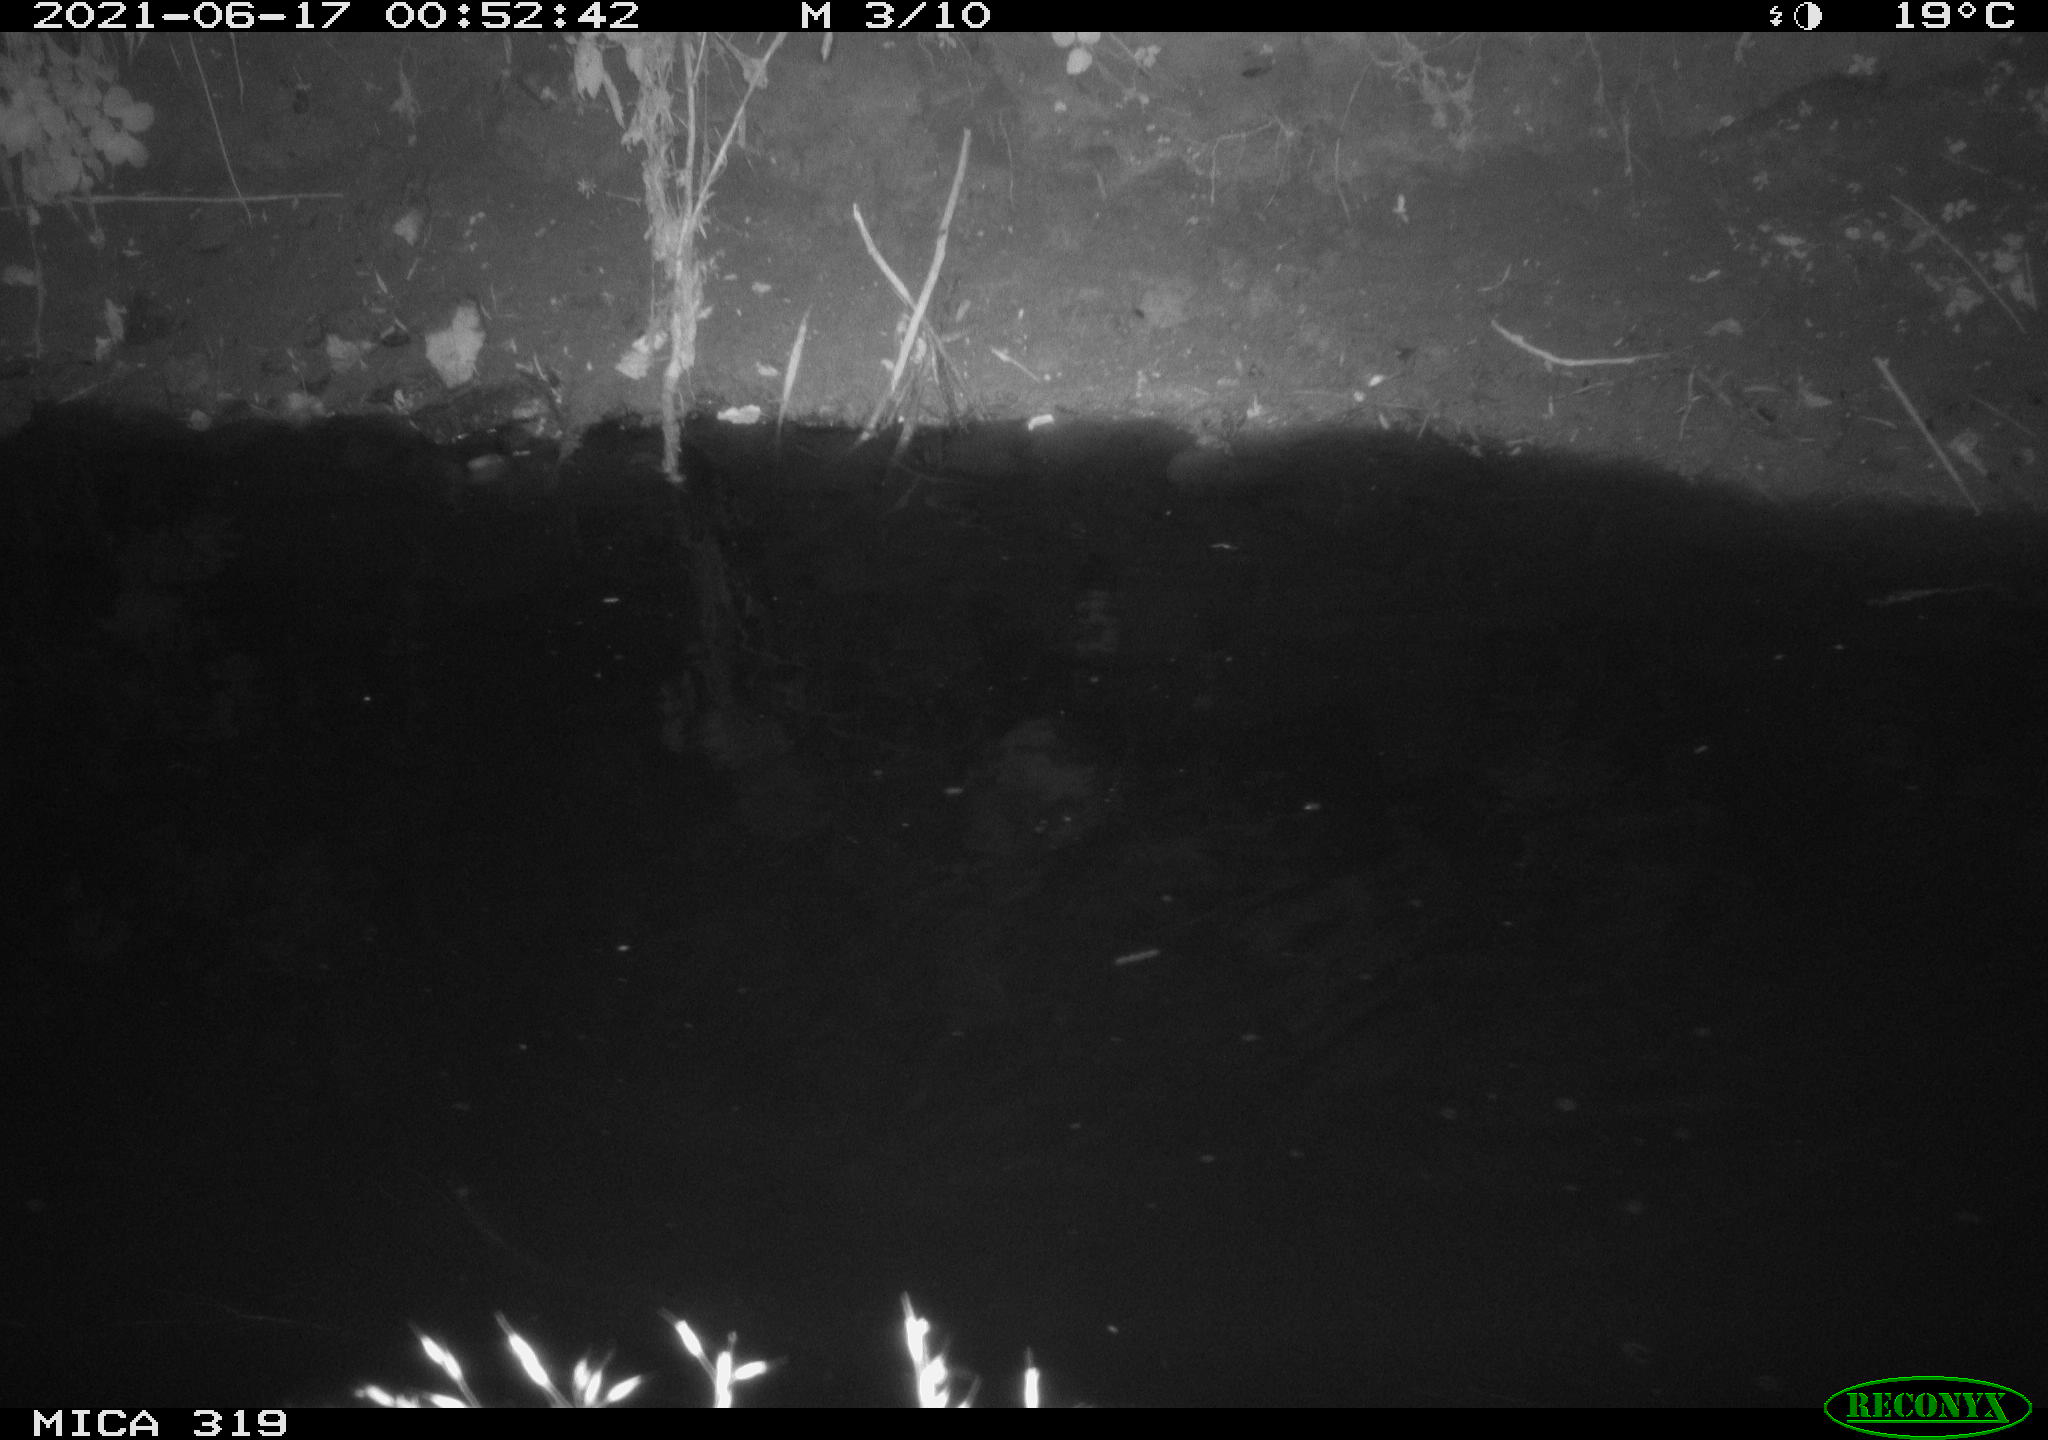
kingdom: Animalia
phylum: Chordata
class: Aves
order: Anseriformes
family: Anatidae
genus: Anas
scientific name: Anas platyrhynchos
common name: Mallard
